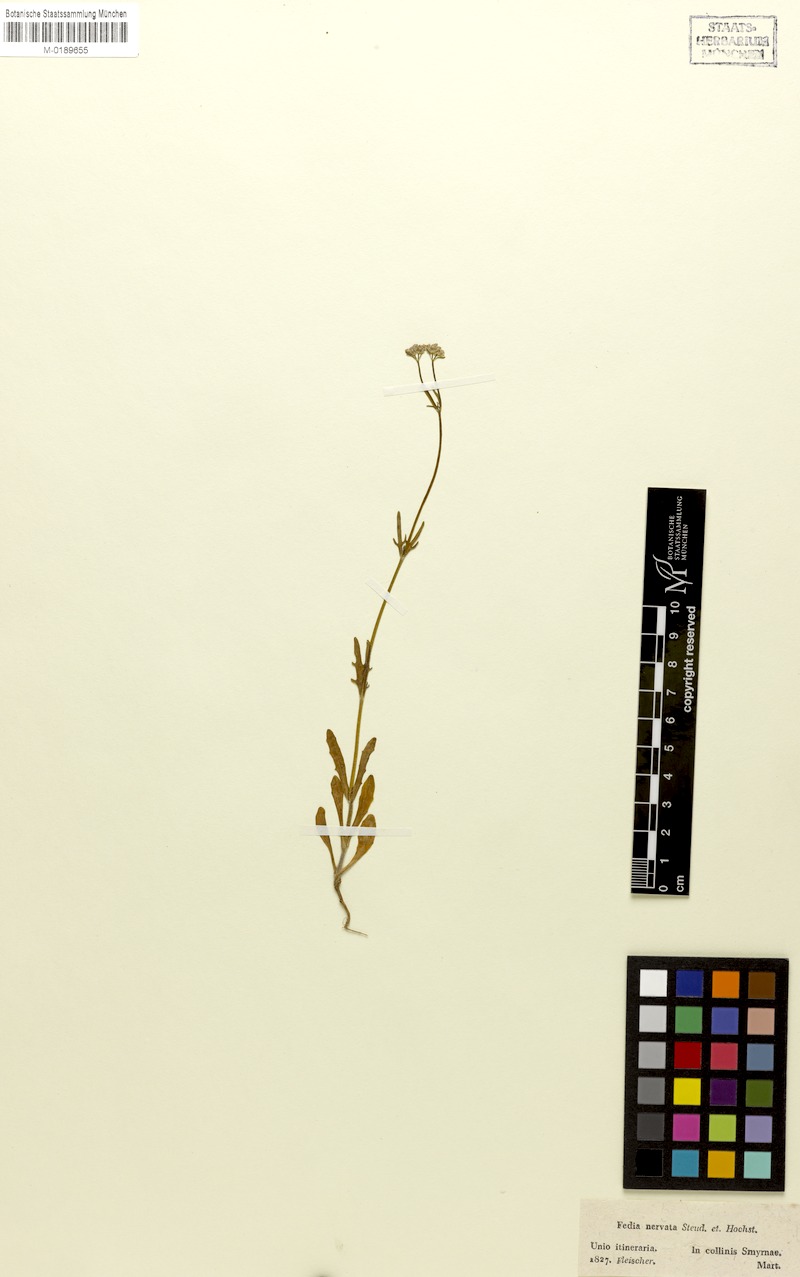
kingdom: Plantae
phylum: Tracheophyta
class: Magnoliopsida
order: Dipsacales
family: Caprifoliaceae
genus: Valerianella
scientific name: Valerianella obtusiloba
